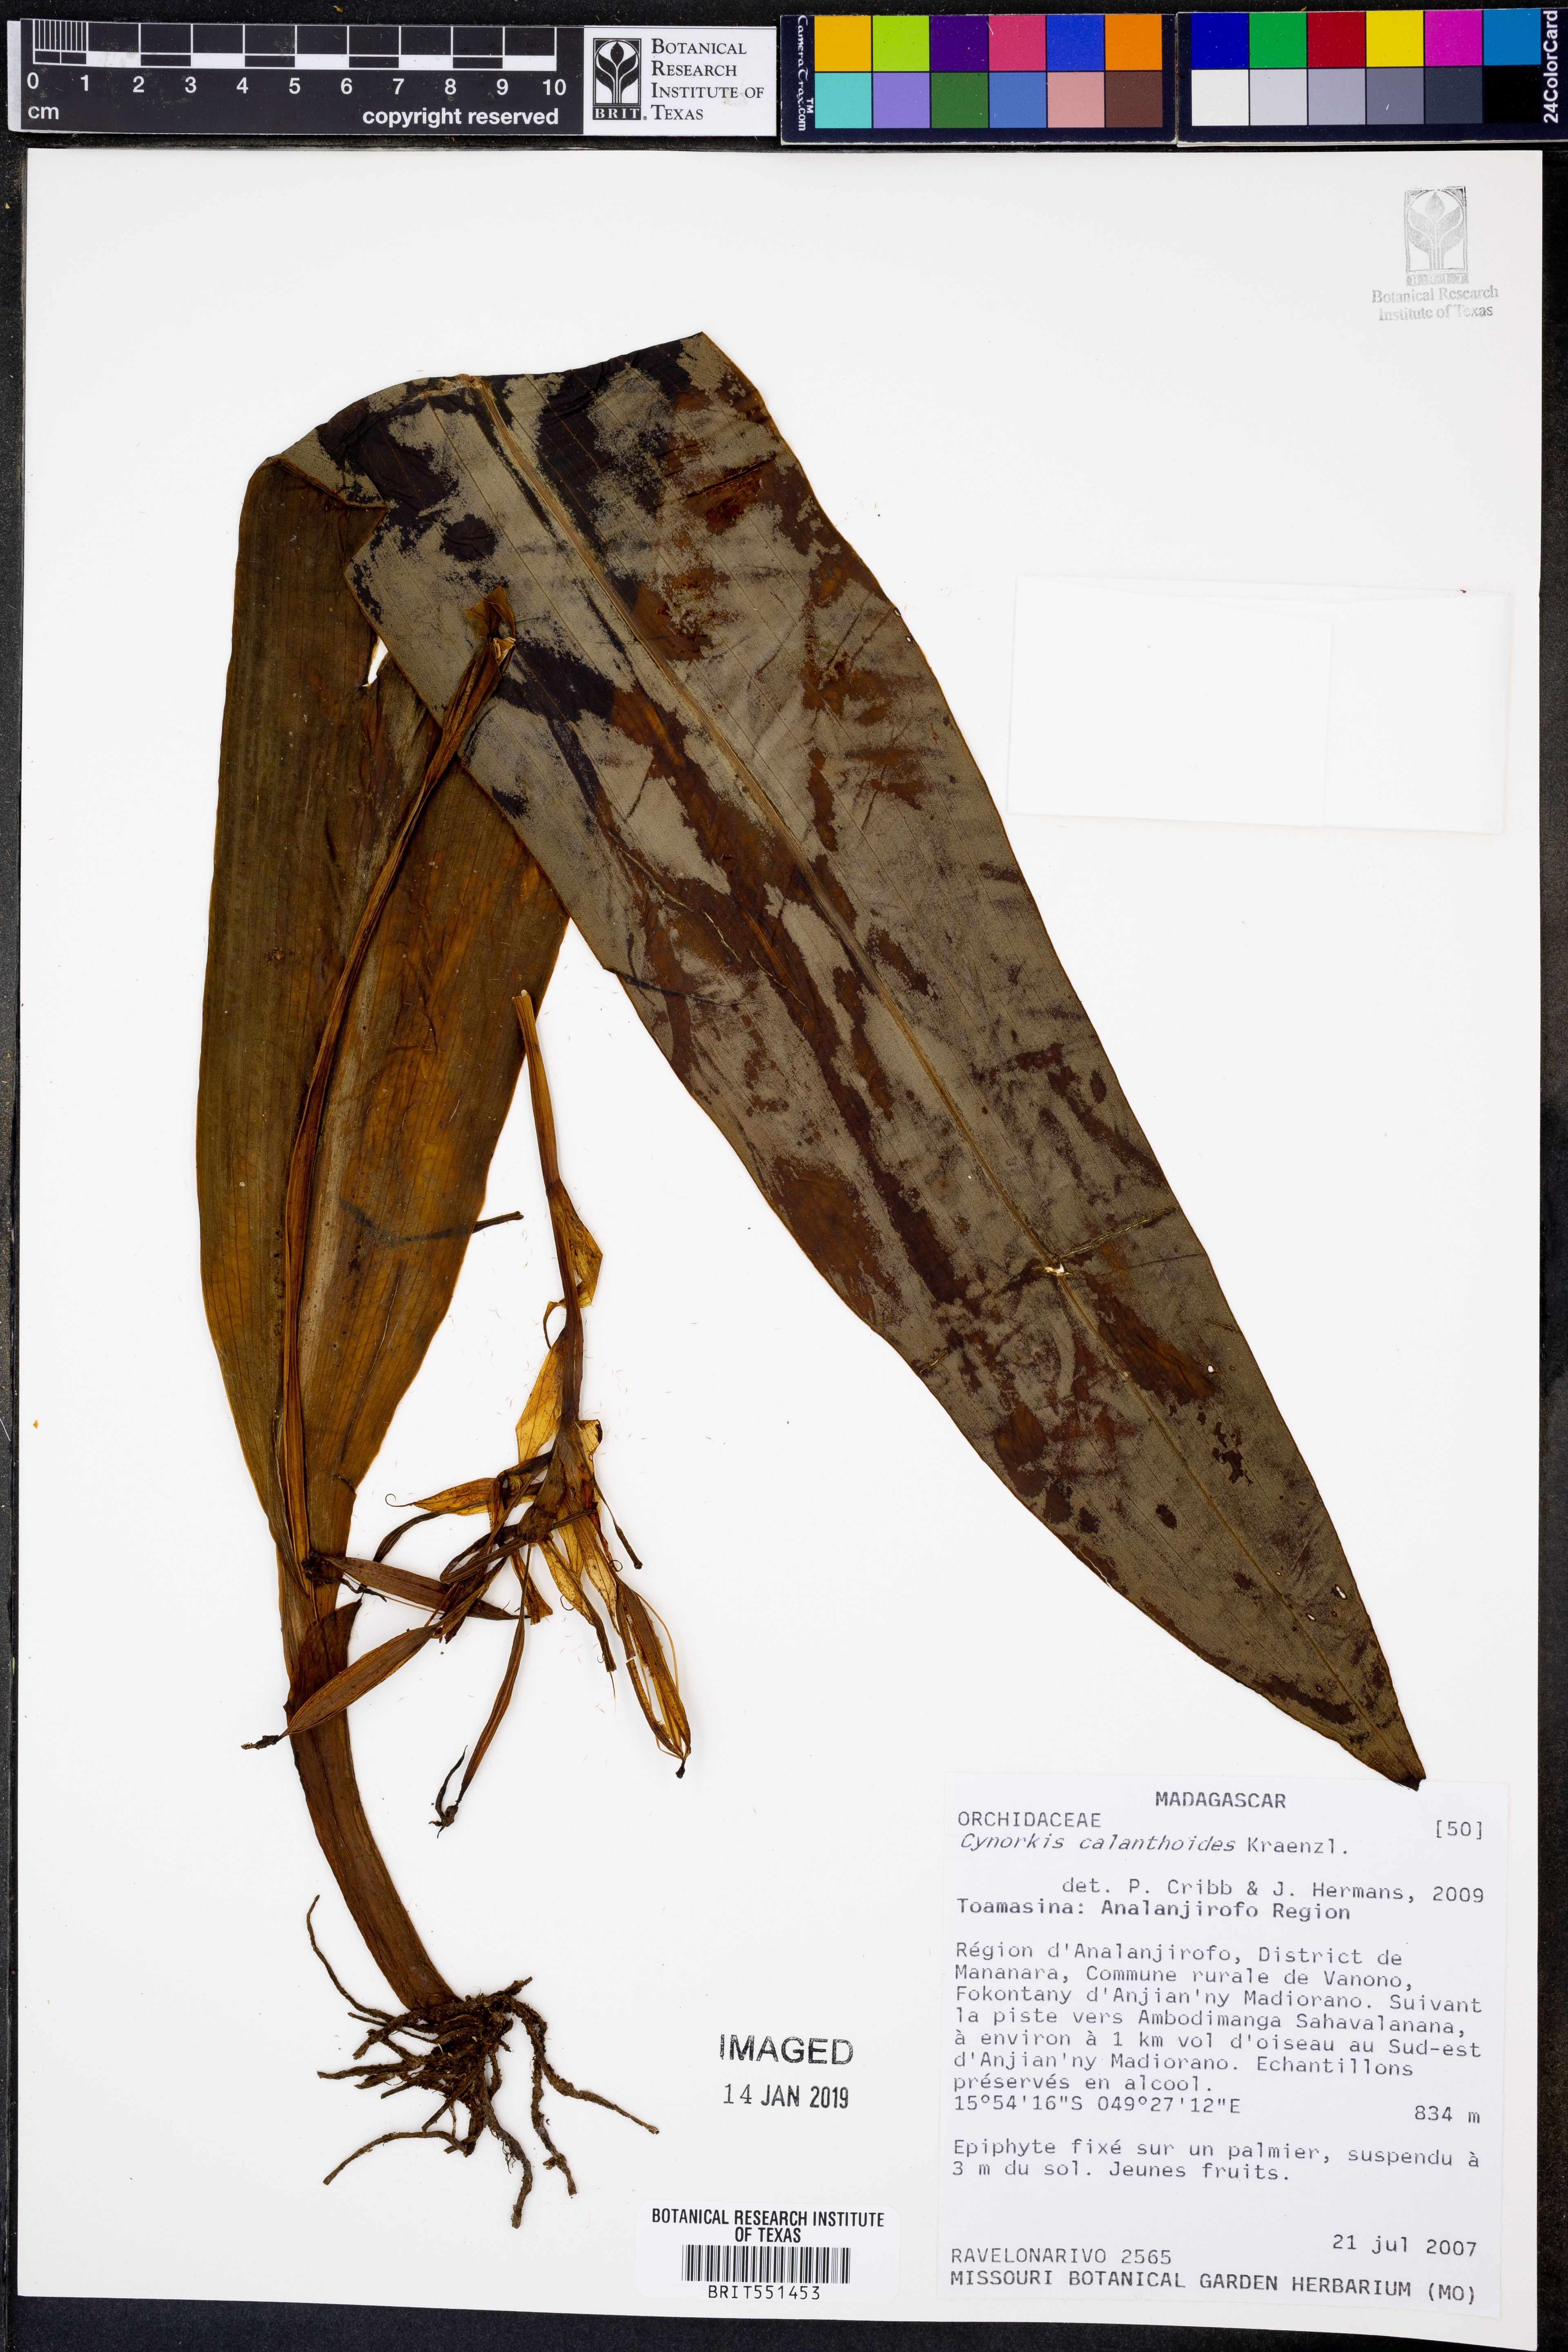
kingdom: Plantae
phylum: Tracheophyta
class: Liliopsida
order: Asparagales
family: Orchidaceae
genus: Cynorkis
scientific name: Cynorkis calanthoides
